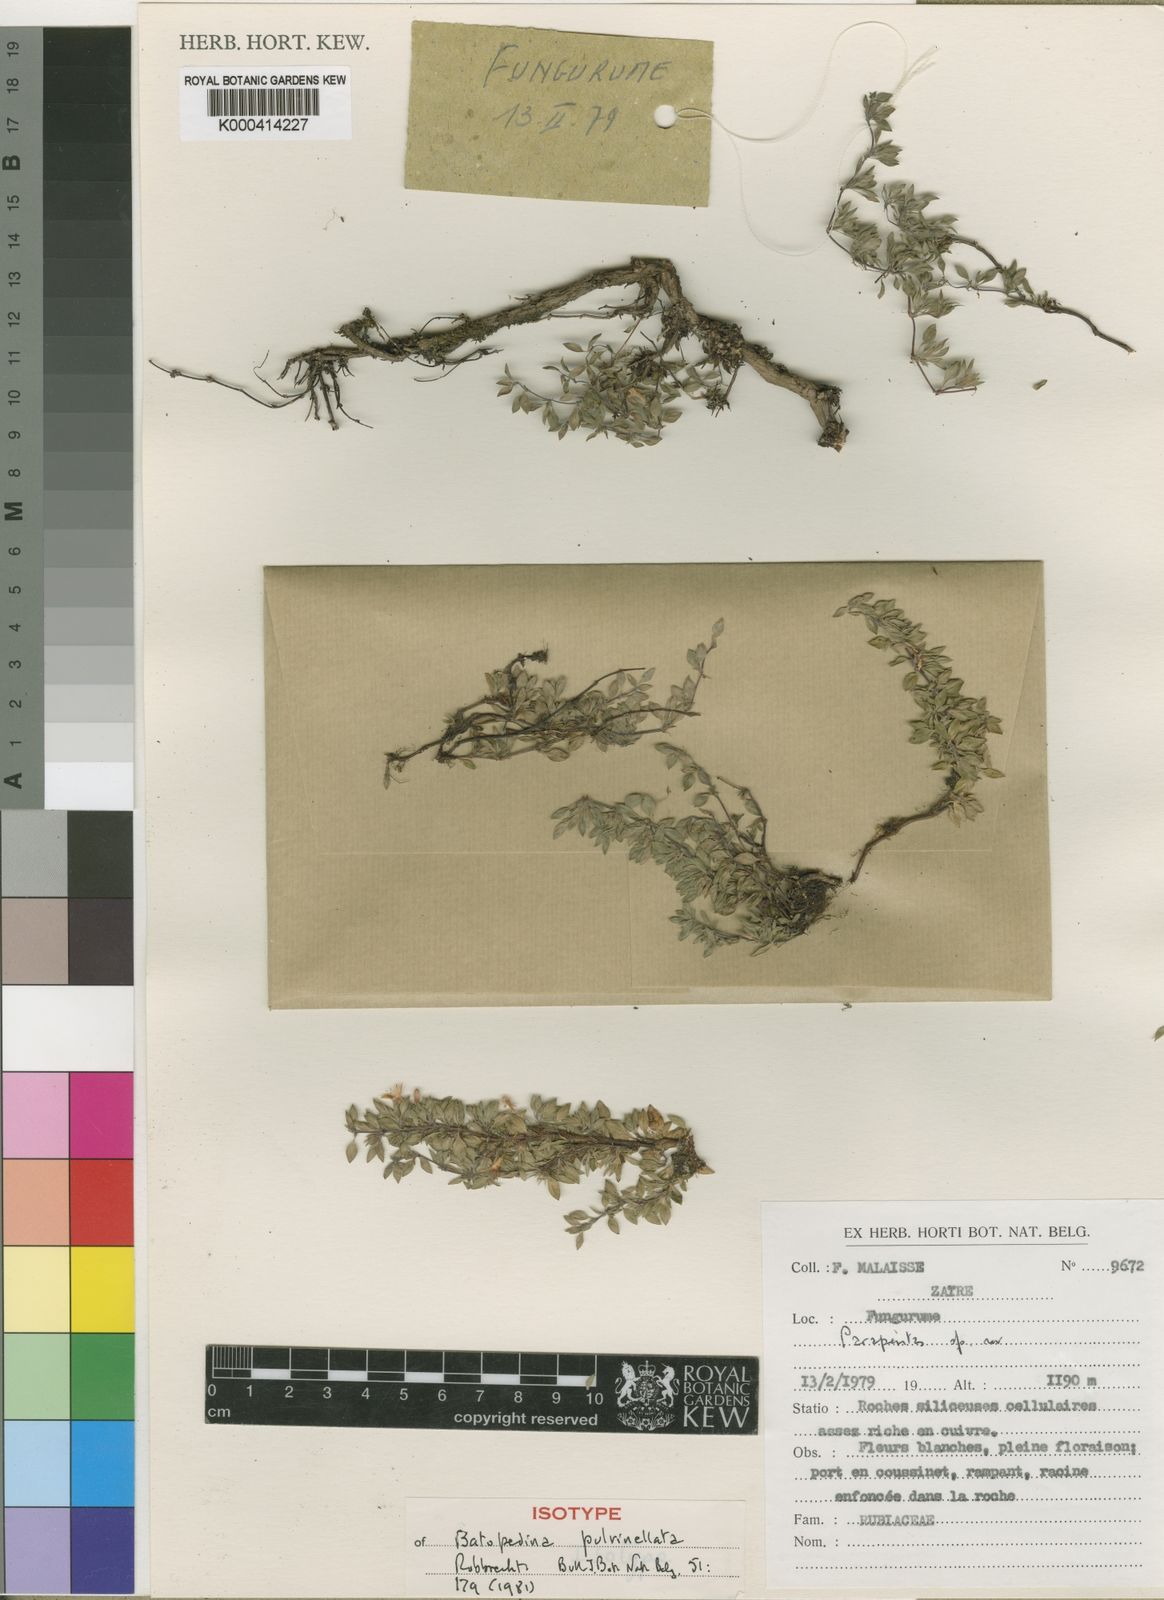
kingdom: Plantae
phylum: Tracheophyta
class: Magnoliopsida
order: Gentianales
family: Rubiaceae
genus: Batopedina
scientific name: Batopedina pulvinellata
